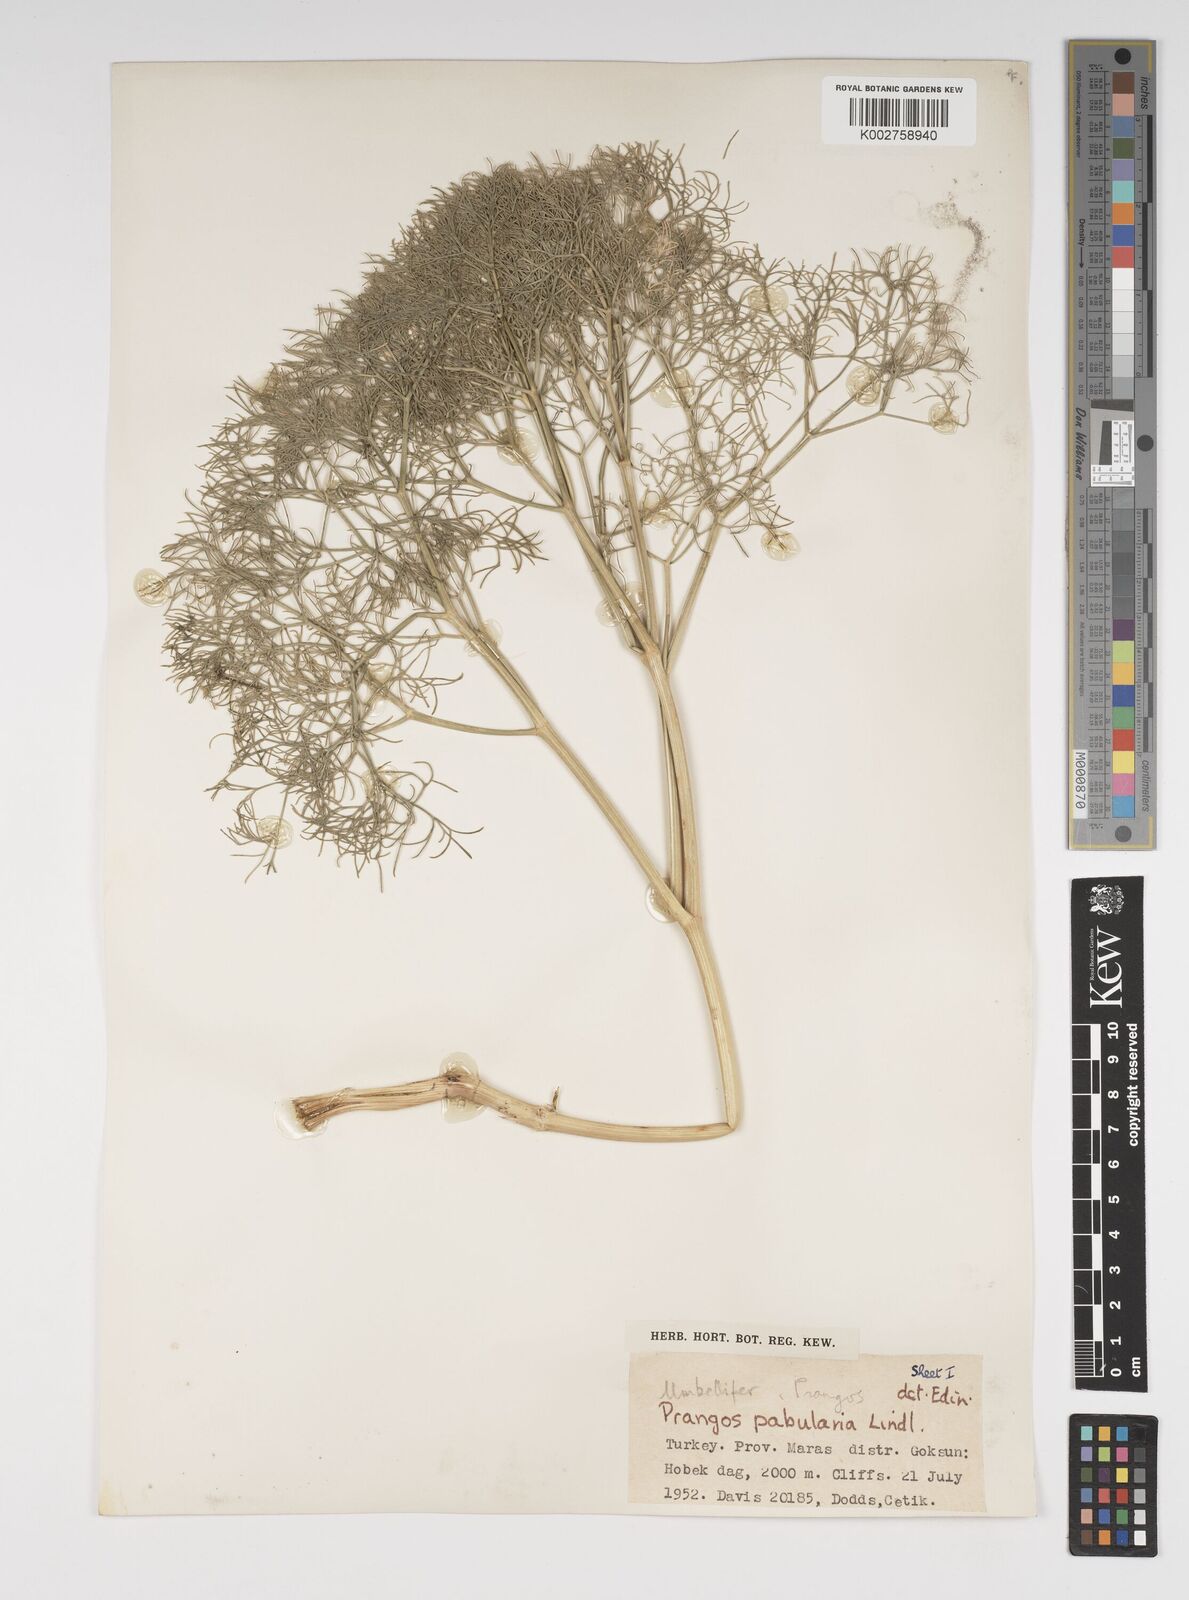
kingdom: Plantae
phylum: Tracheophyta
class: Magnoliopsida
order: Apiales
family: Apiaceae
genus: Prangos
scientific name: Prangos pabularia
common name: Yugan
